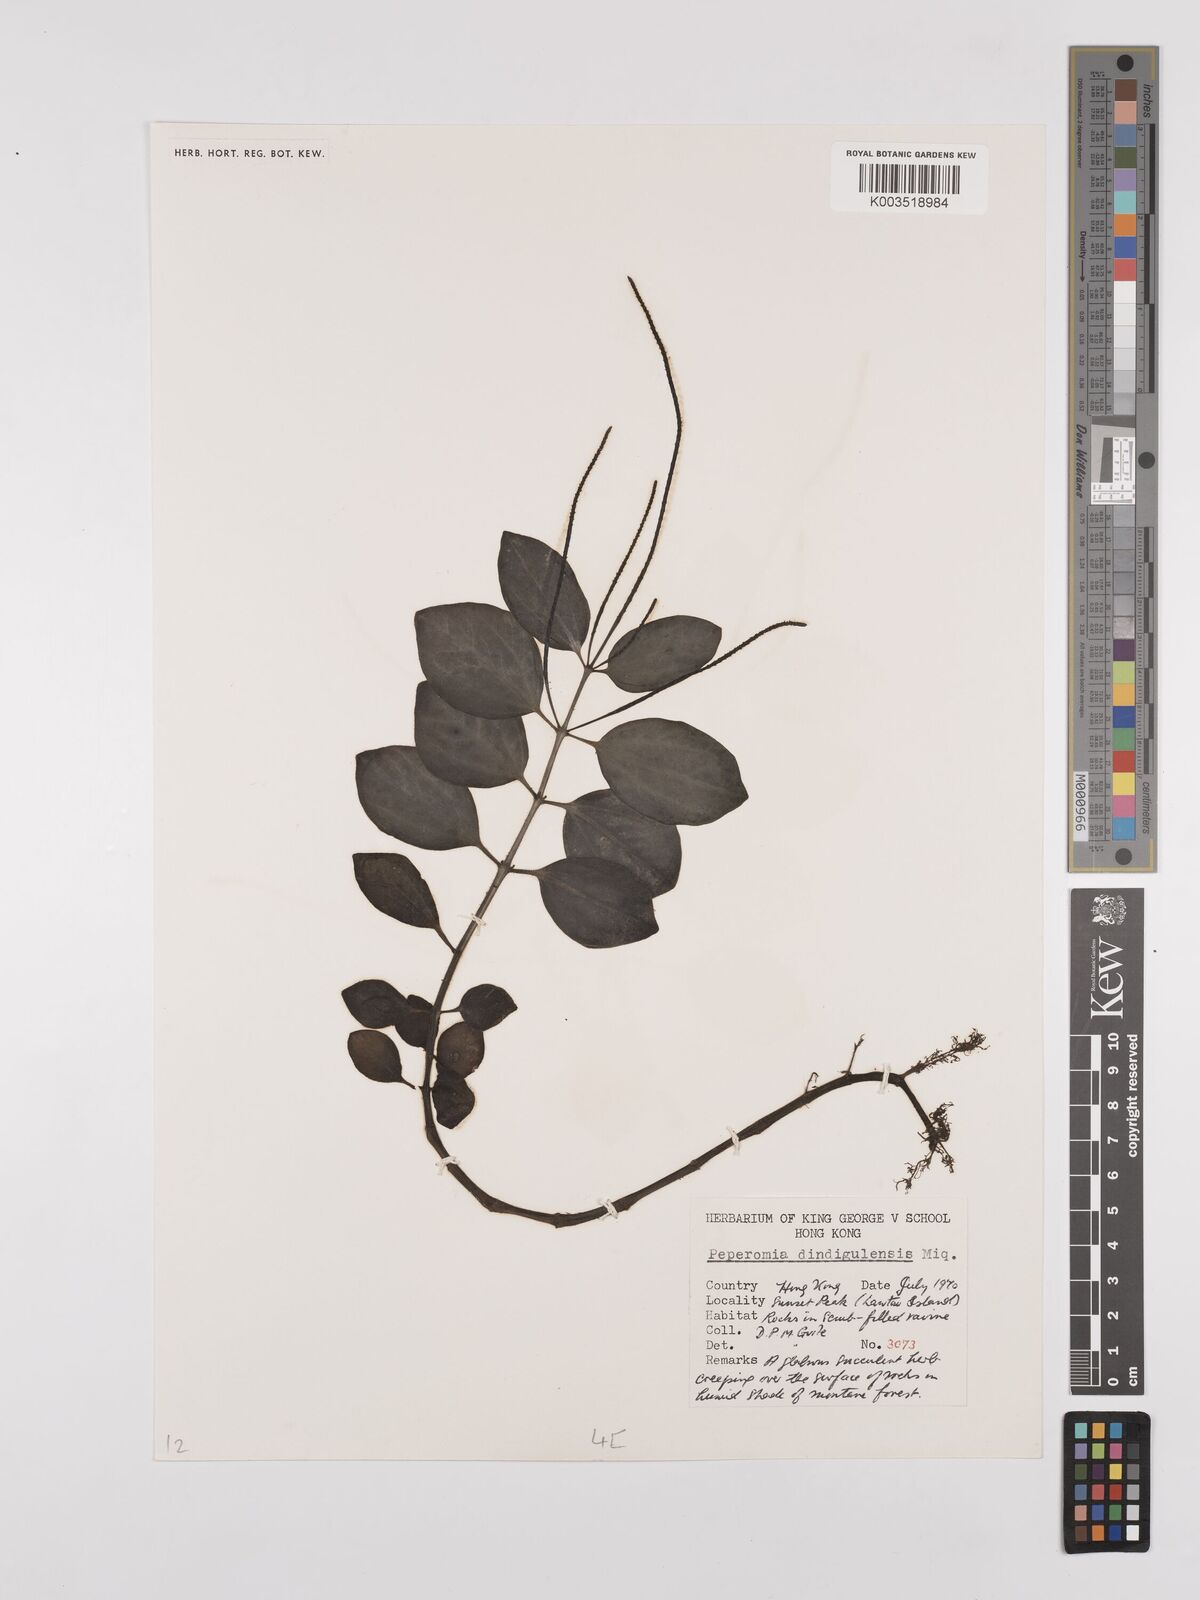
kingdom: Plantae
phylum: Tracheophyta
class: Magnoliopsida
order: Piperales
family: Piperaceae
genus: Peperomia
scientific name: Peperomia leptostachya
